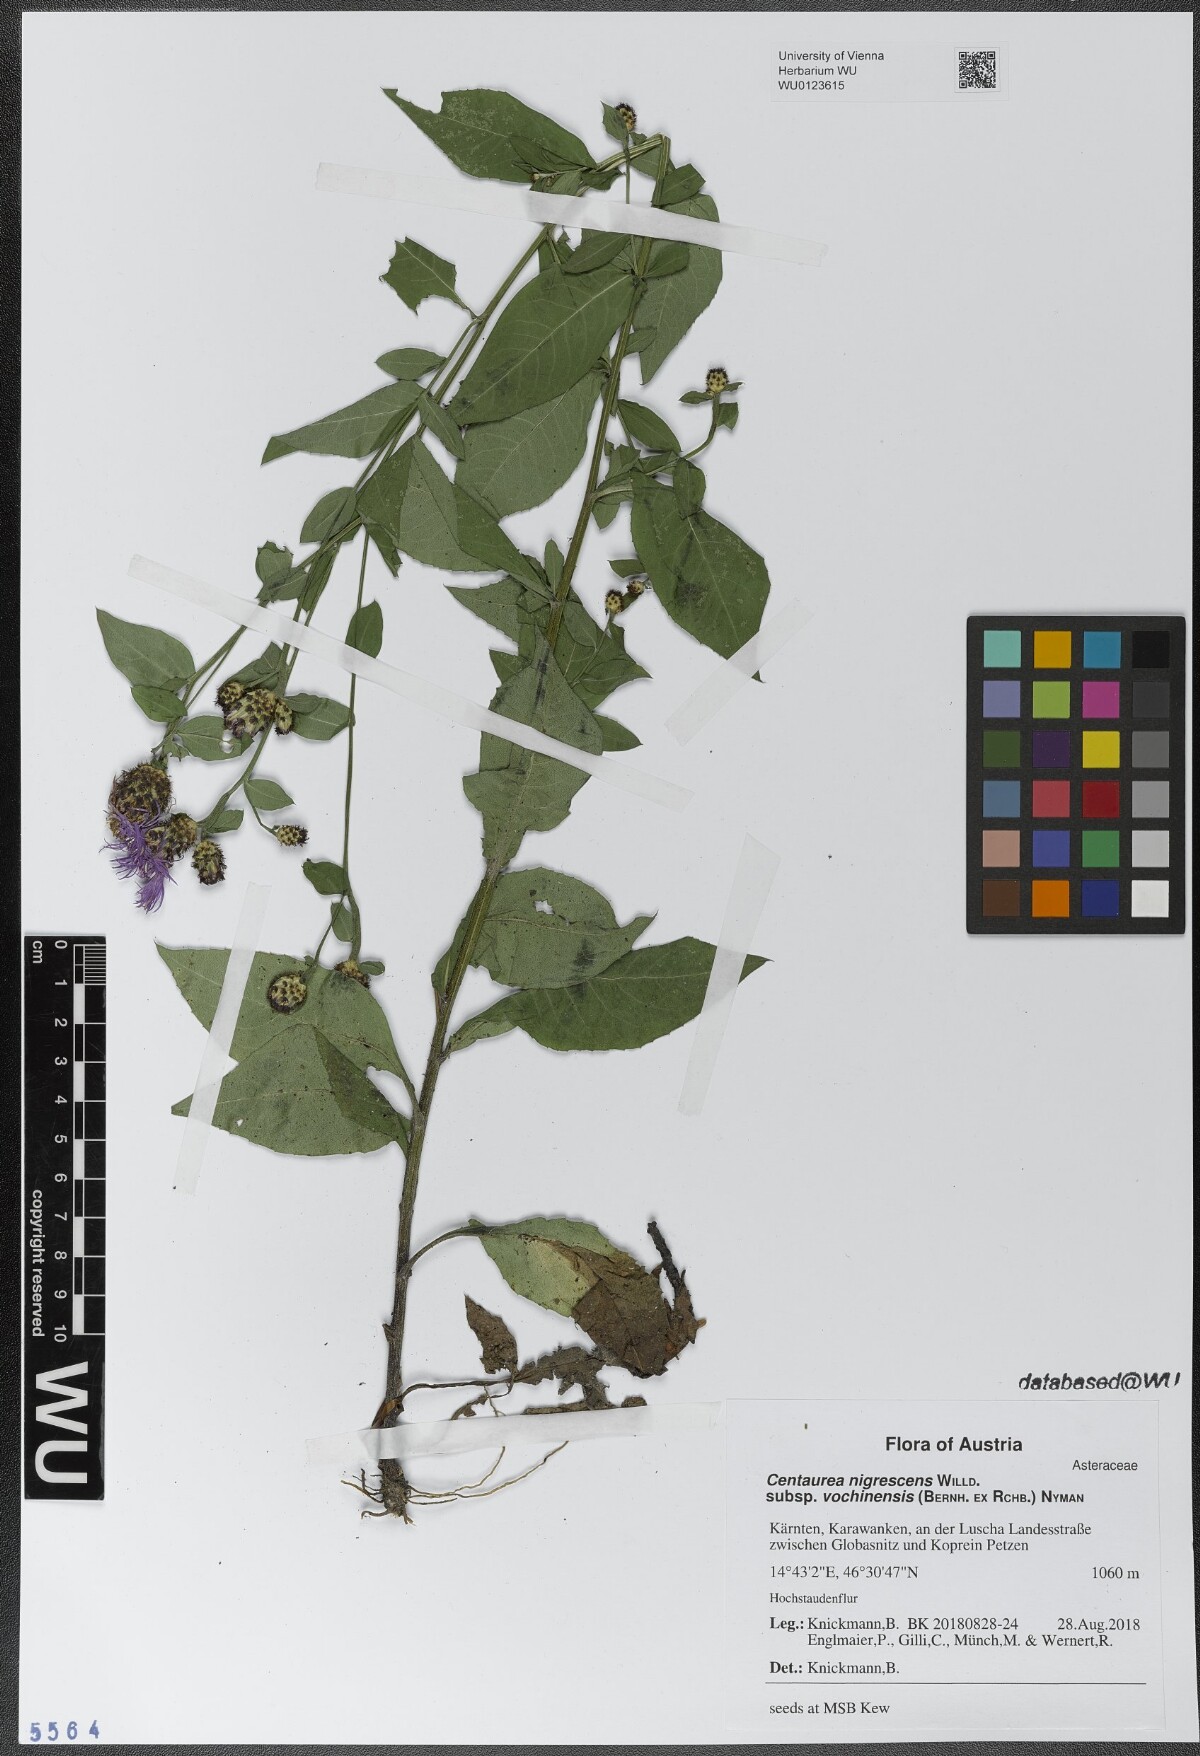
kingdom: Plantae
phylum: Tracheophyta
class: Magnoliopsida
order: Asterales
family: Asteraceae
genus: Centaurea
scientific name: Centaurea carniolica
